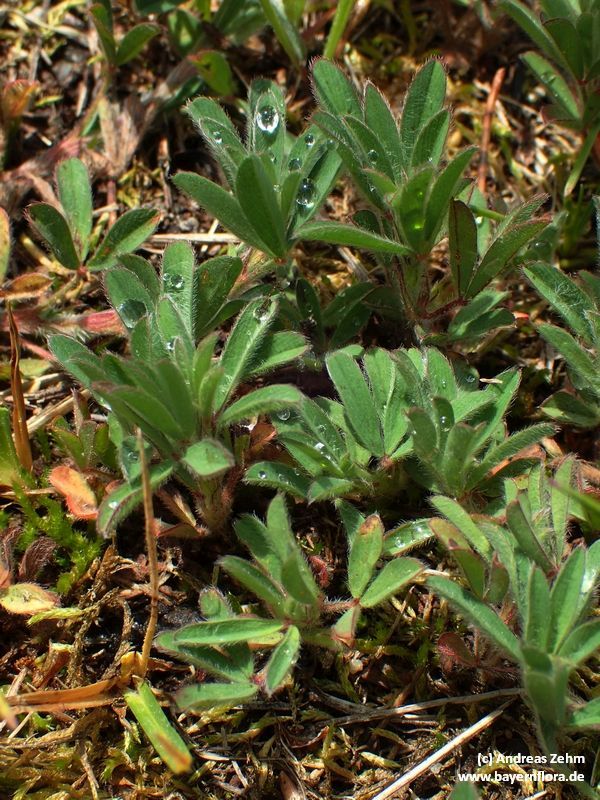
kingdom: Plantae
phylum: Tracheophyta
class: Magnoliopsida
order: Fabales
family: Fabaceae
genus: Trifolium
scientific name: Trifolium arvense
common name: Hare's-foot clover
